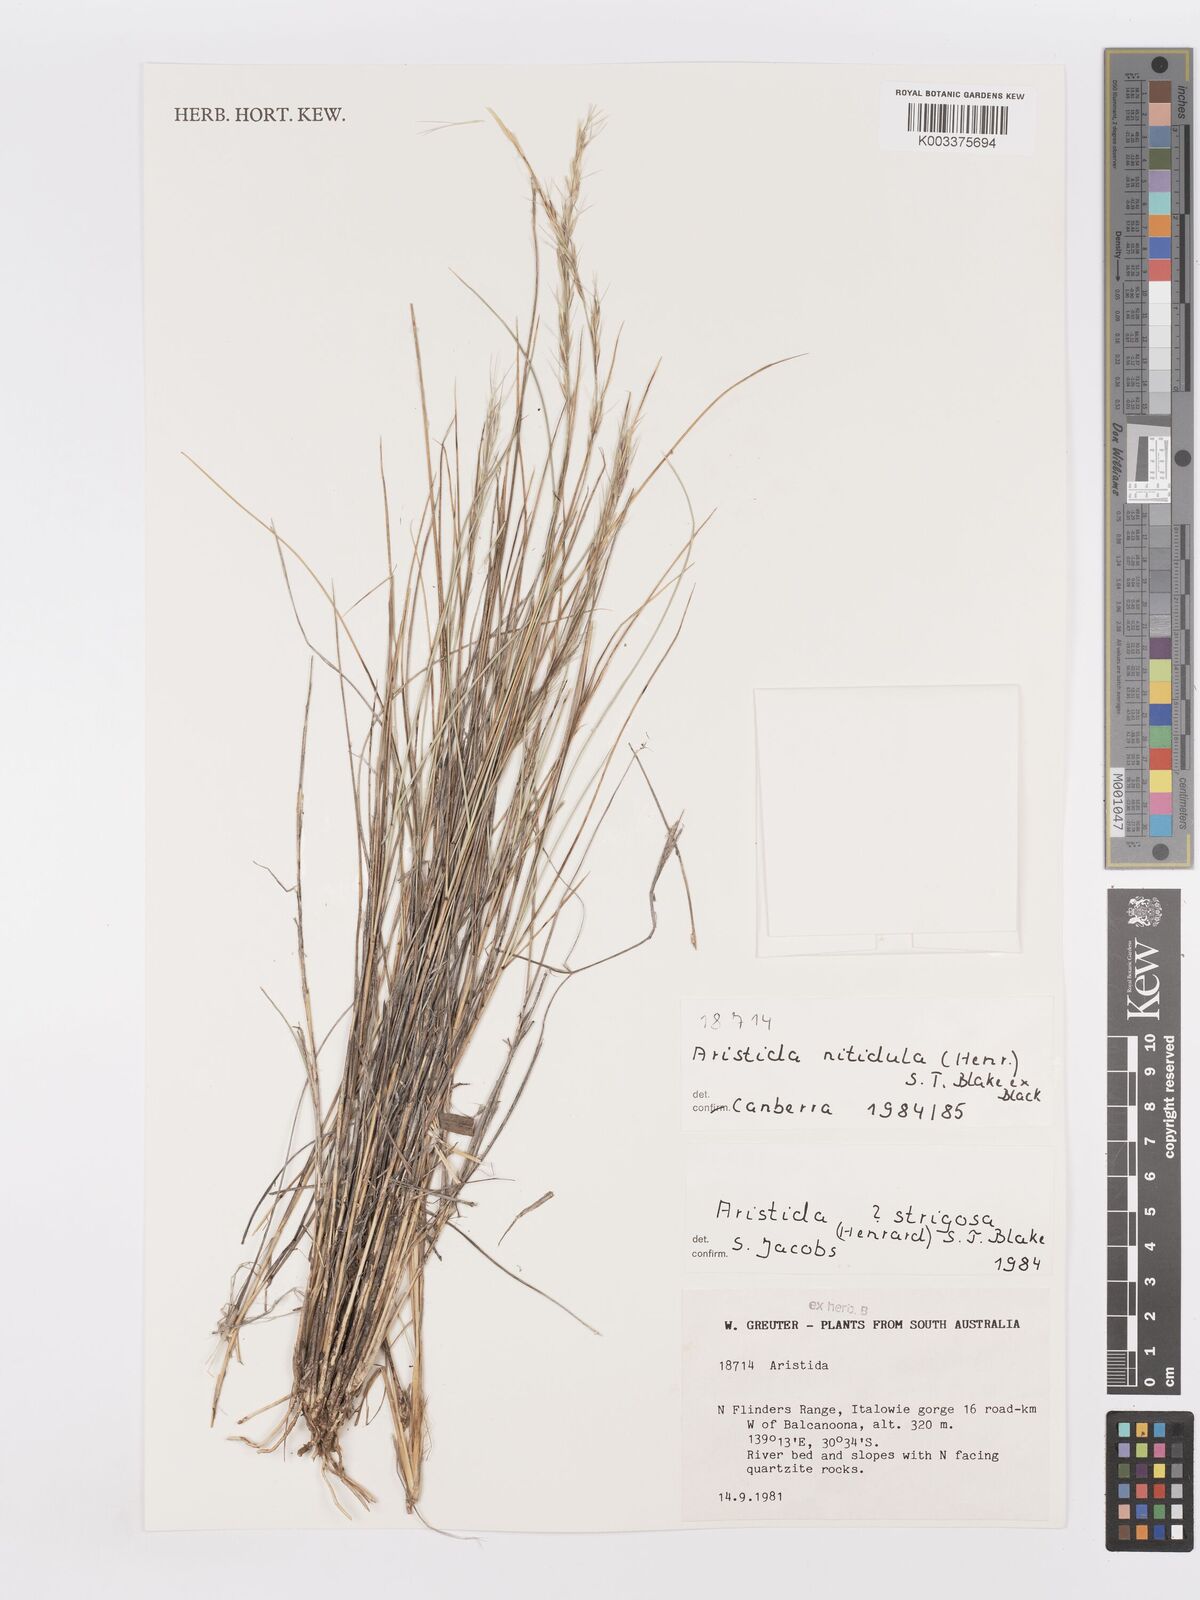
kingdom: Plantae
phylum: Tracheophyta
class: Liliopsida
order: Poales
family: Poaceae
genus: Aristida
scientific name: Aristida nitidula
